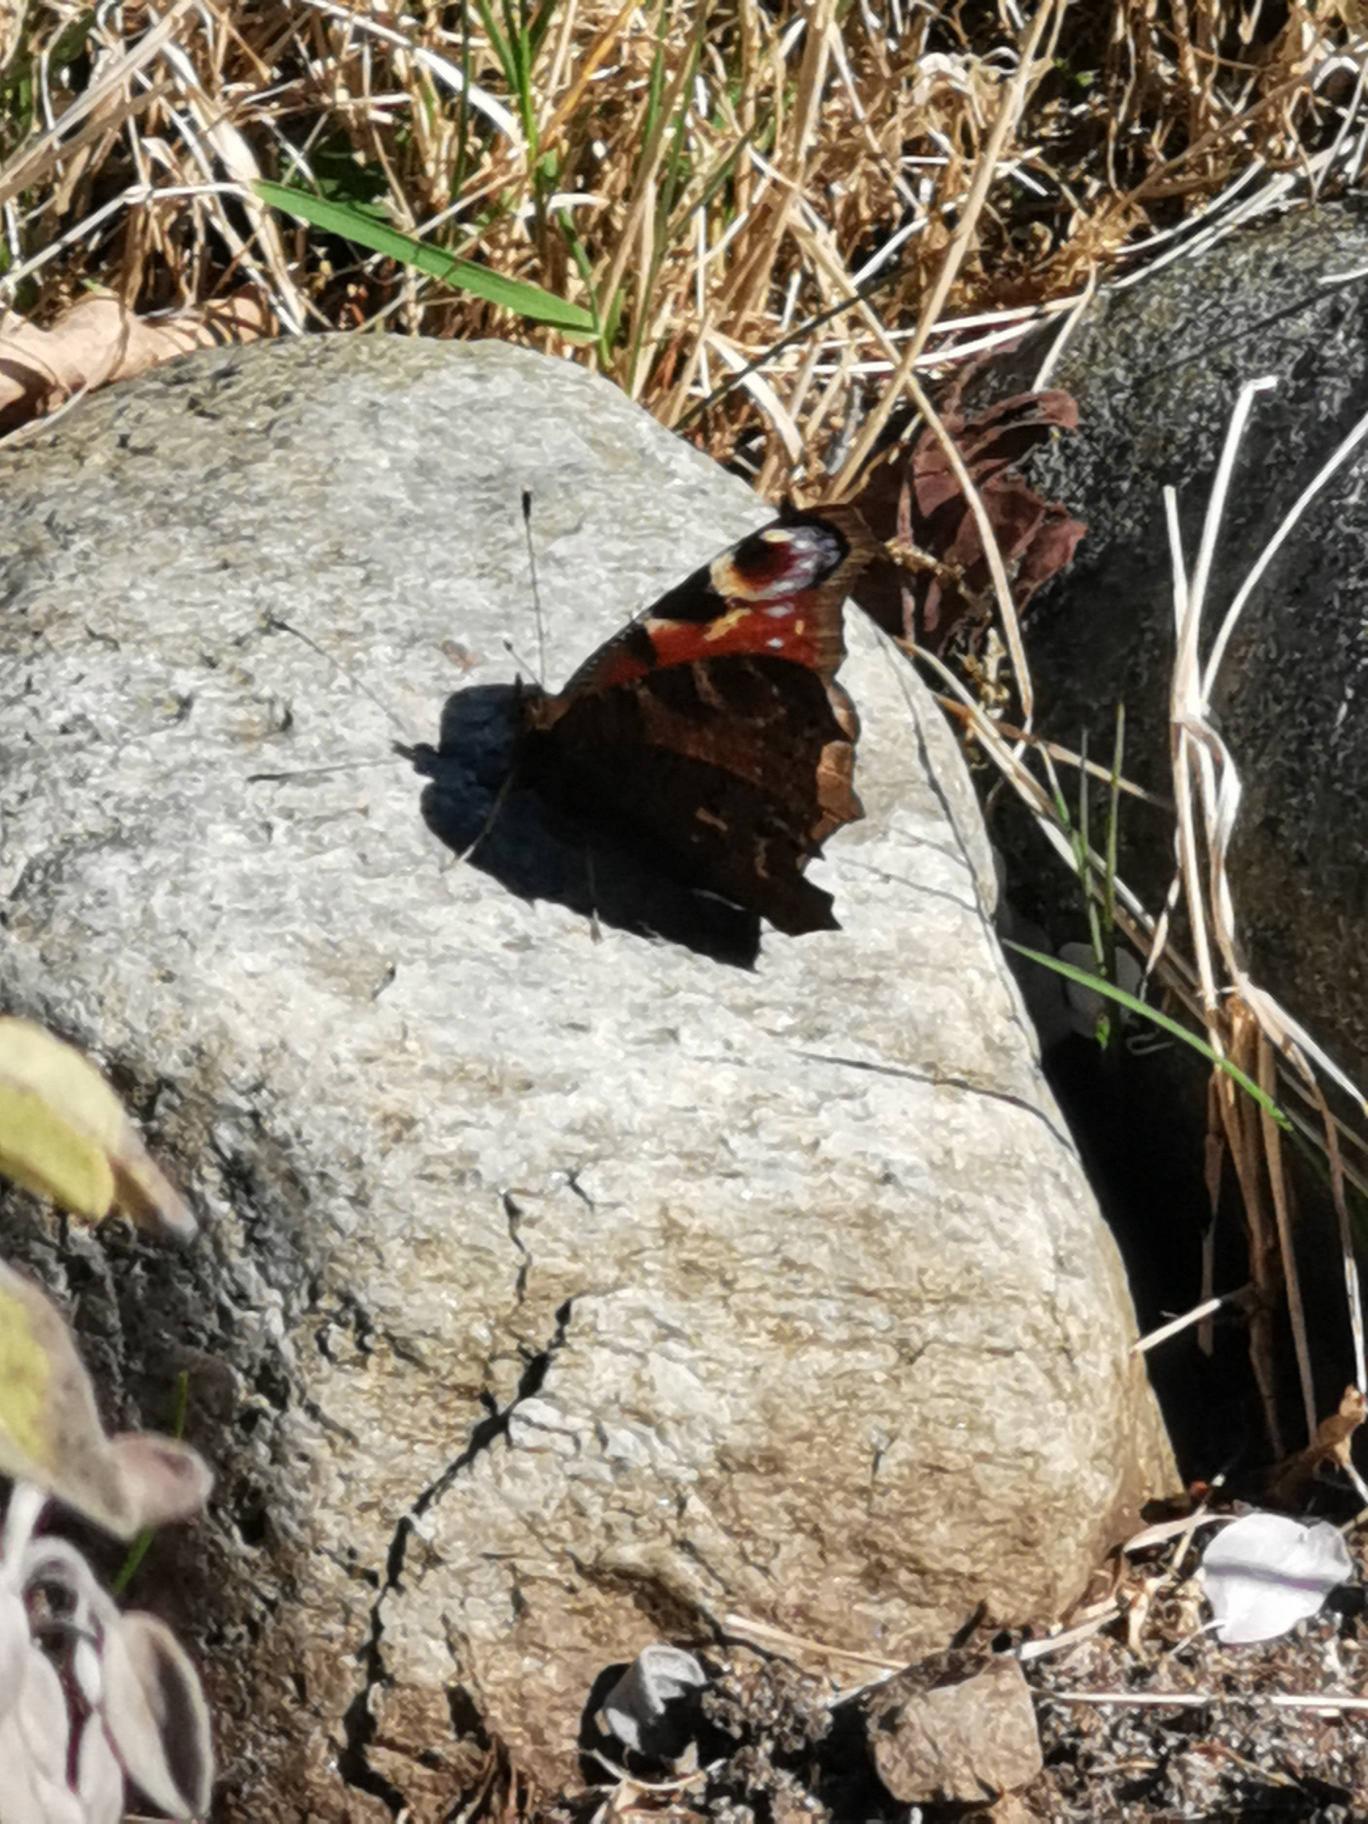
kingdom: Animalia
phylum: Arthropoda
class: Insecta
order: Lepidoptera
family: Nymphalidae
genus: Aglais
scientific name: Aglais io
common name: Dagpåfugleøje
